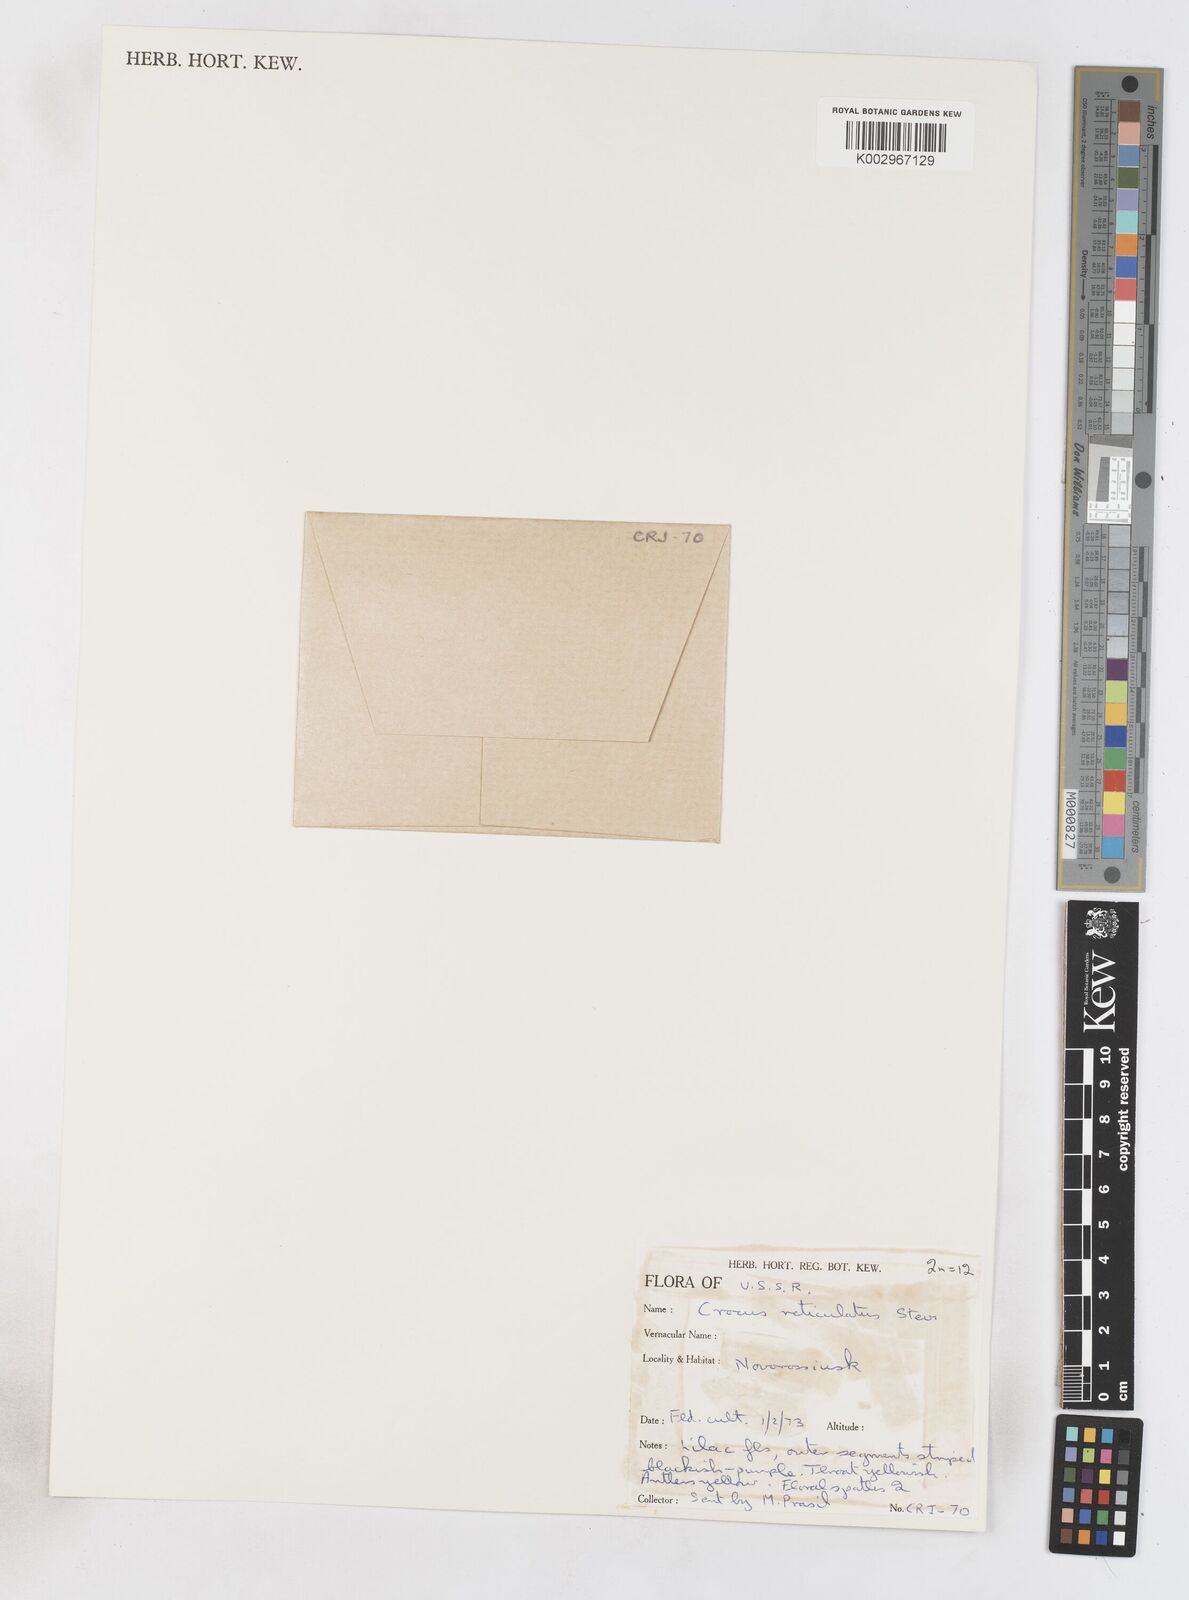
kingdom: Plantae
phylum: Tracheophyta
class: Liliopsida
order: Asparagales
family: Iridaceae
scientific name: Iridaceae
